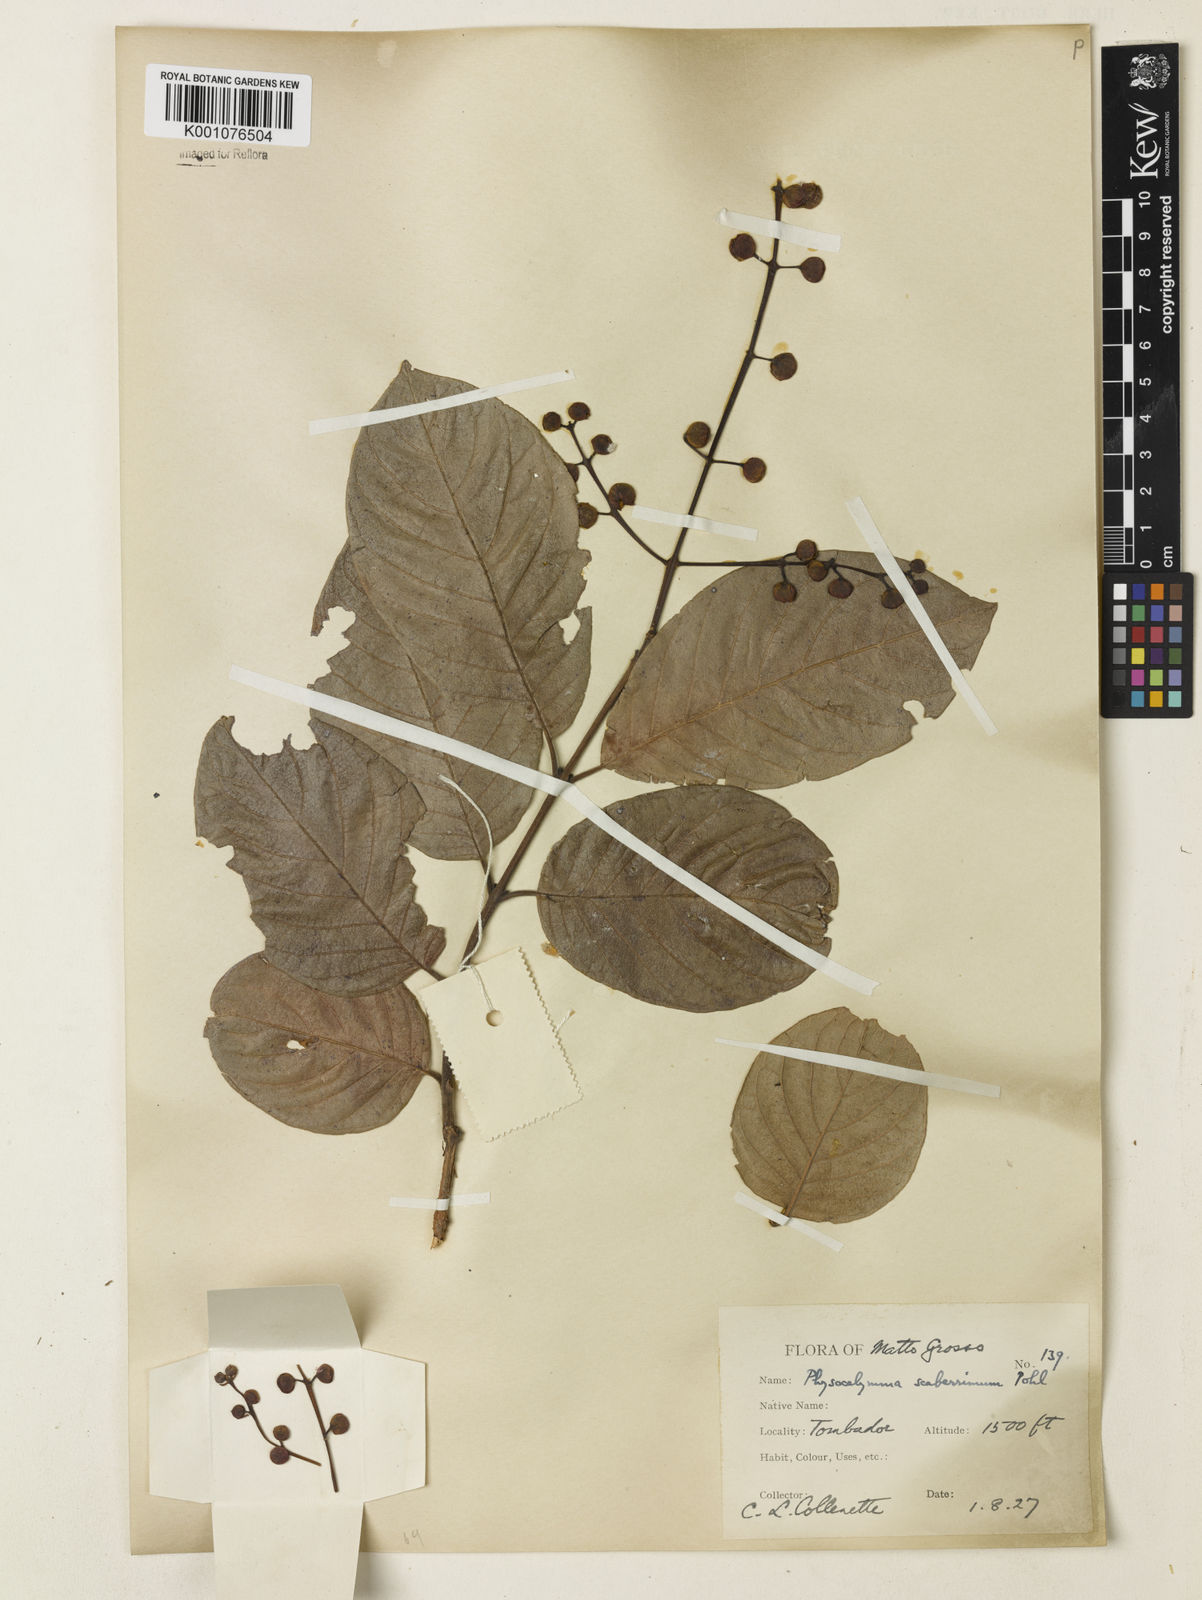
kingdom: Plantae
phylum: Tracheophyta
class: Magnoliopsida
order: Myrtales
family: Lythraceae
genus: Physocalymma
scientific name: Physocalymma scaberrimum
